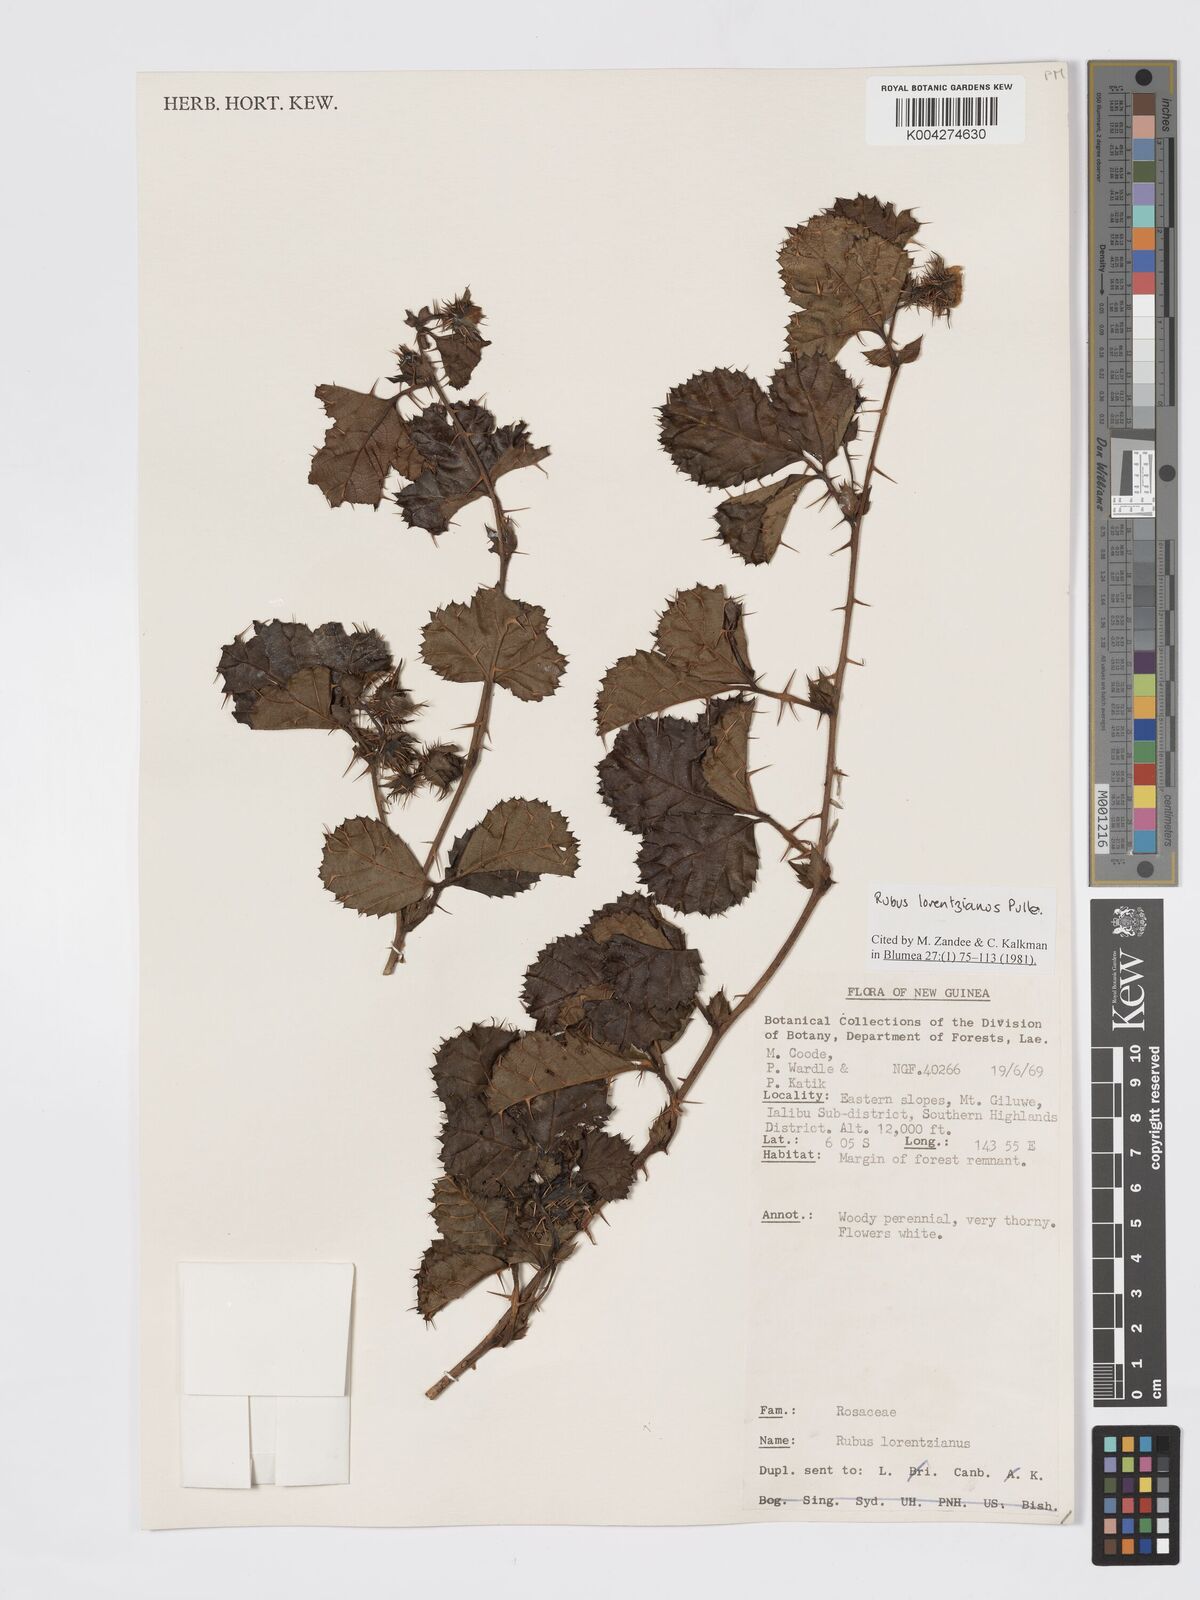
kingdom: Plantae
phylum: Tracheophyta
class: Magnoliopsida
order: Rosales
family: Rosaceae
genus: Rubus
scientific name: Rubus lorentzianus
